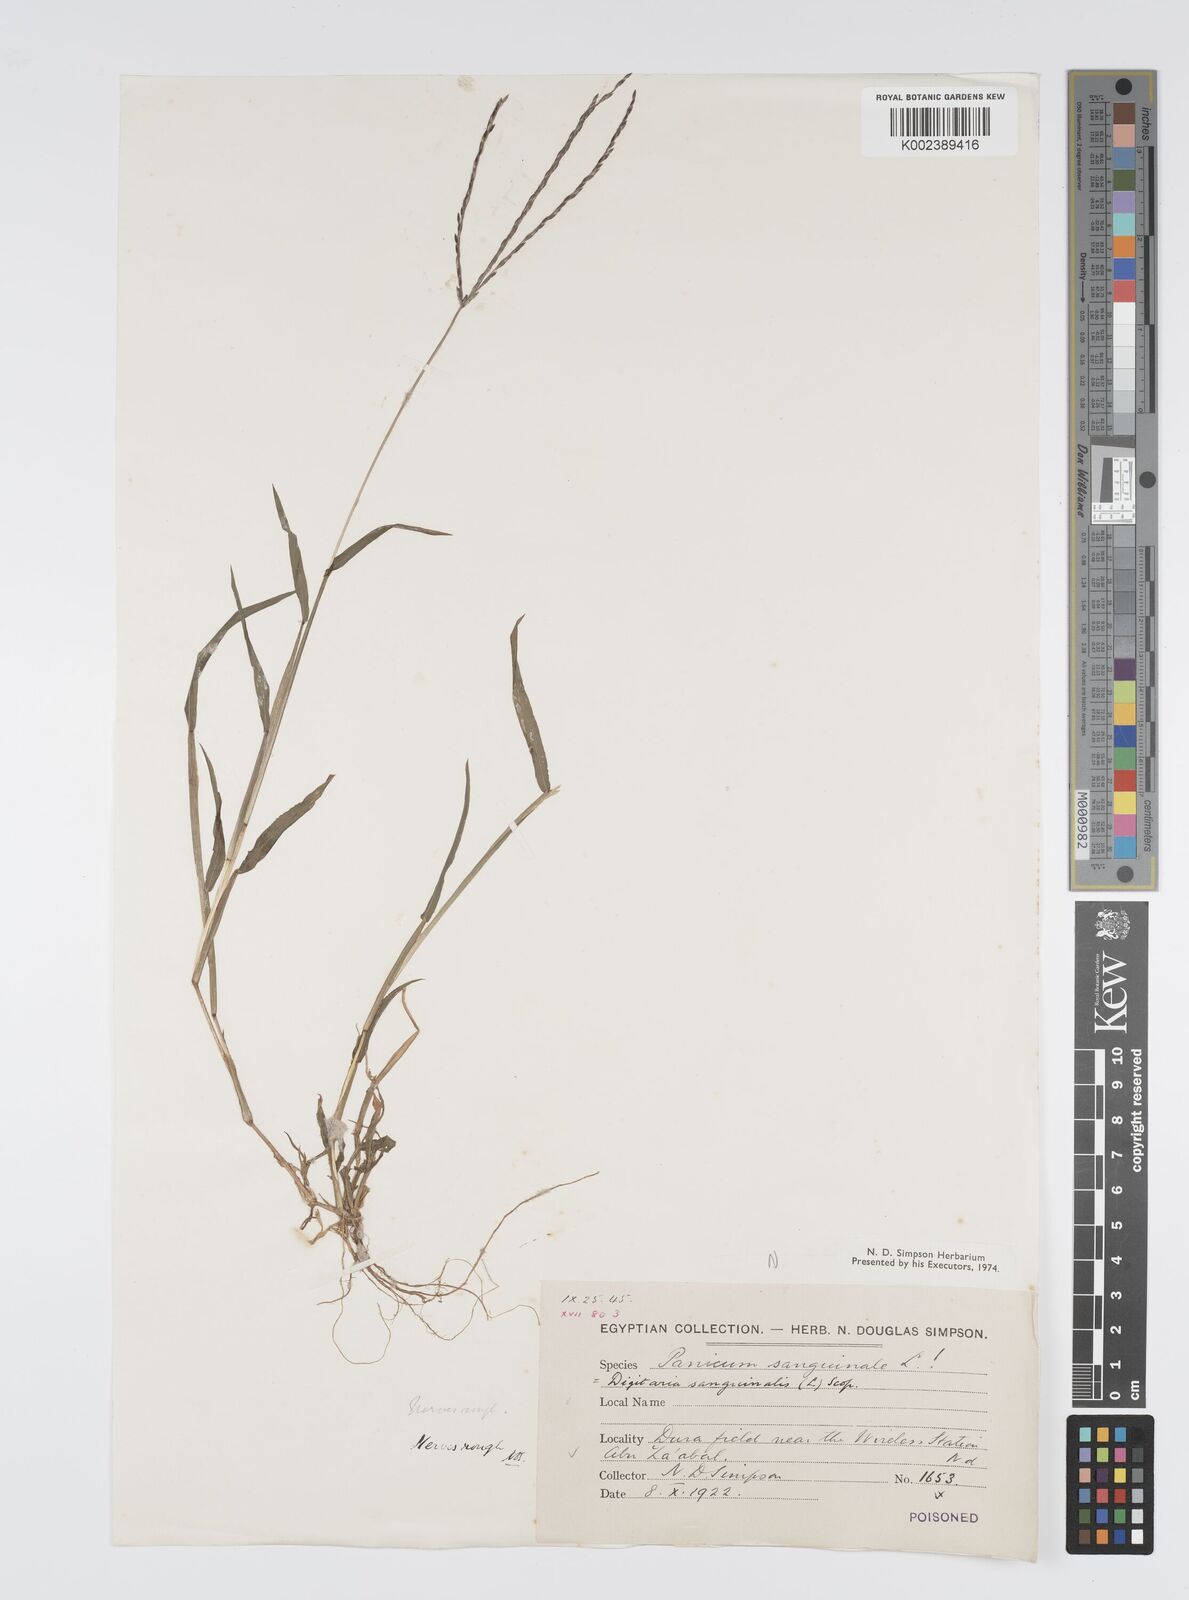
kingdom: Plantae
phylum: Tracheophyta
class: Liliopsida
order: Poales
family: Poaceae
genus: Digitaria
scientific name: Digitaria sanguinalis
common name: Hairy crabgrass
